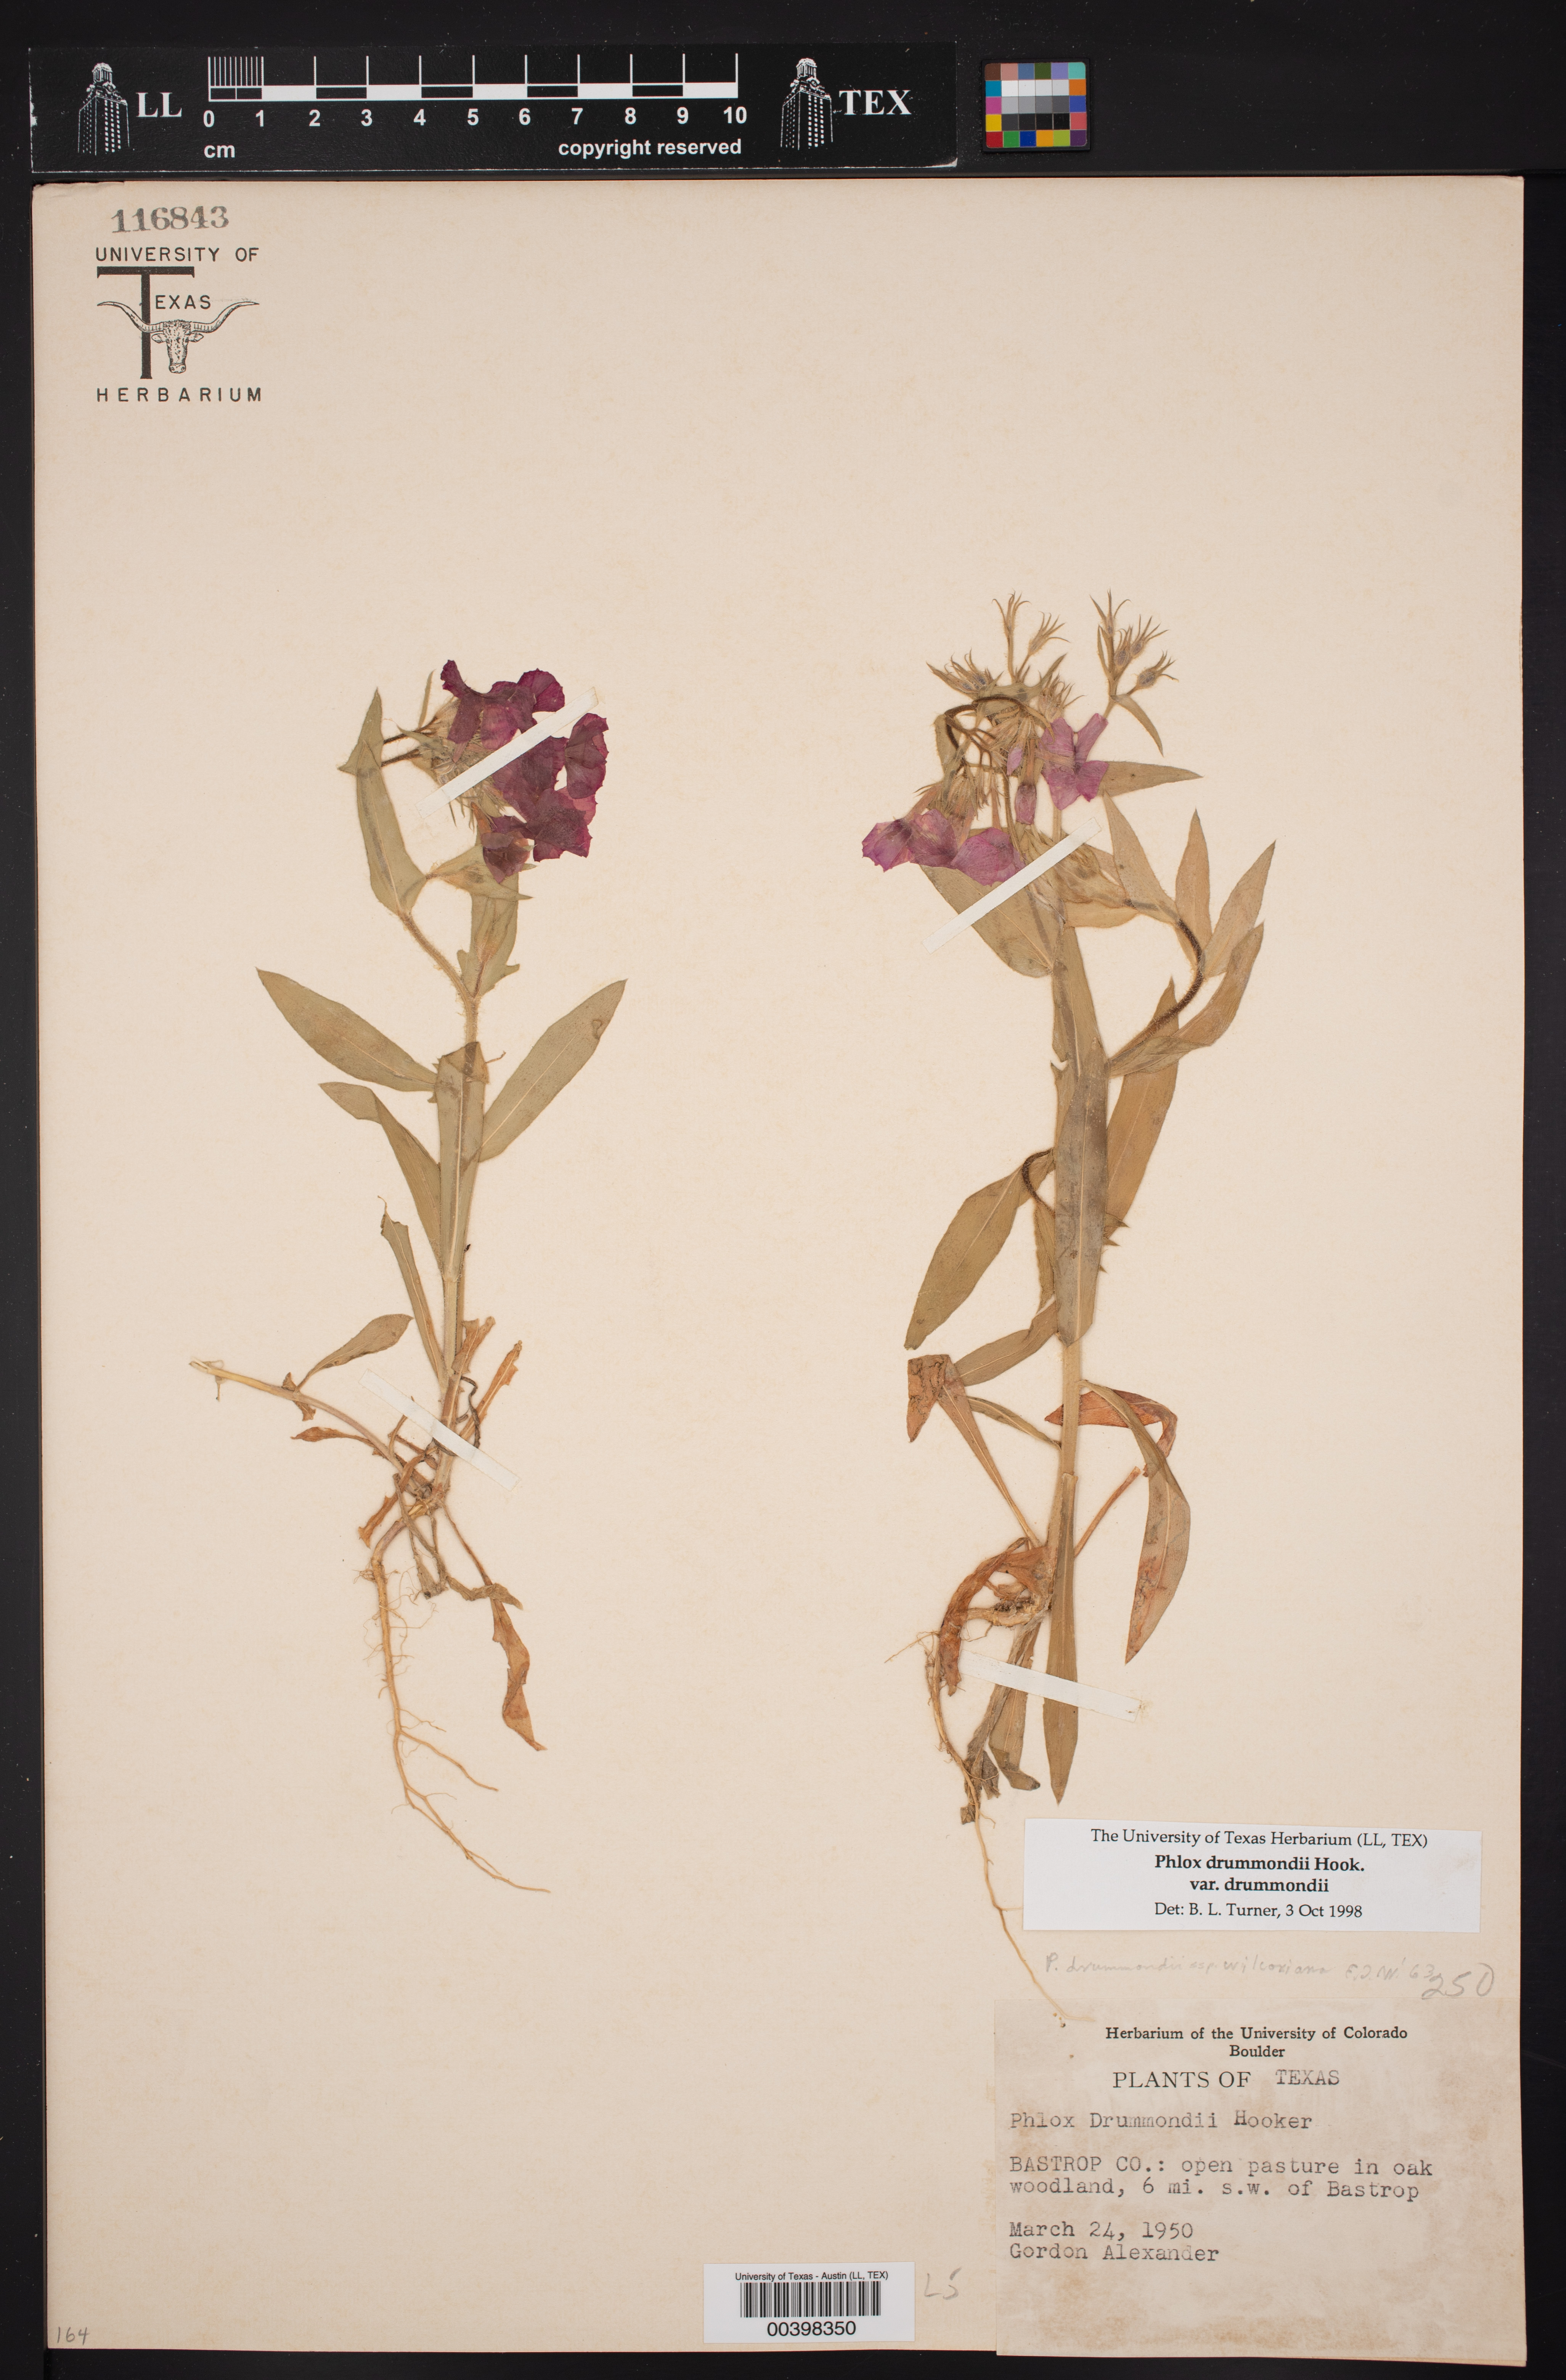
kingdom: Plantae
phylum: Tracheophyta
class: Magnoliopsida
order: Ericales
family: Polemoniaceae
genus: Phlox
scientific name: Phlox drummondii
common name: Drummond's phlox
